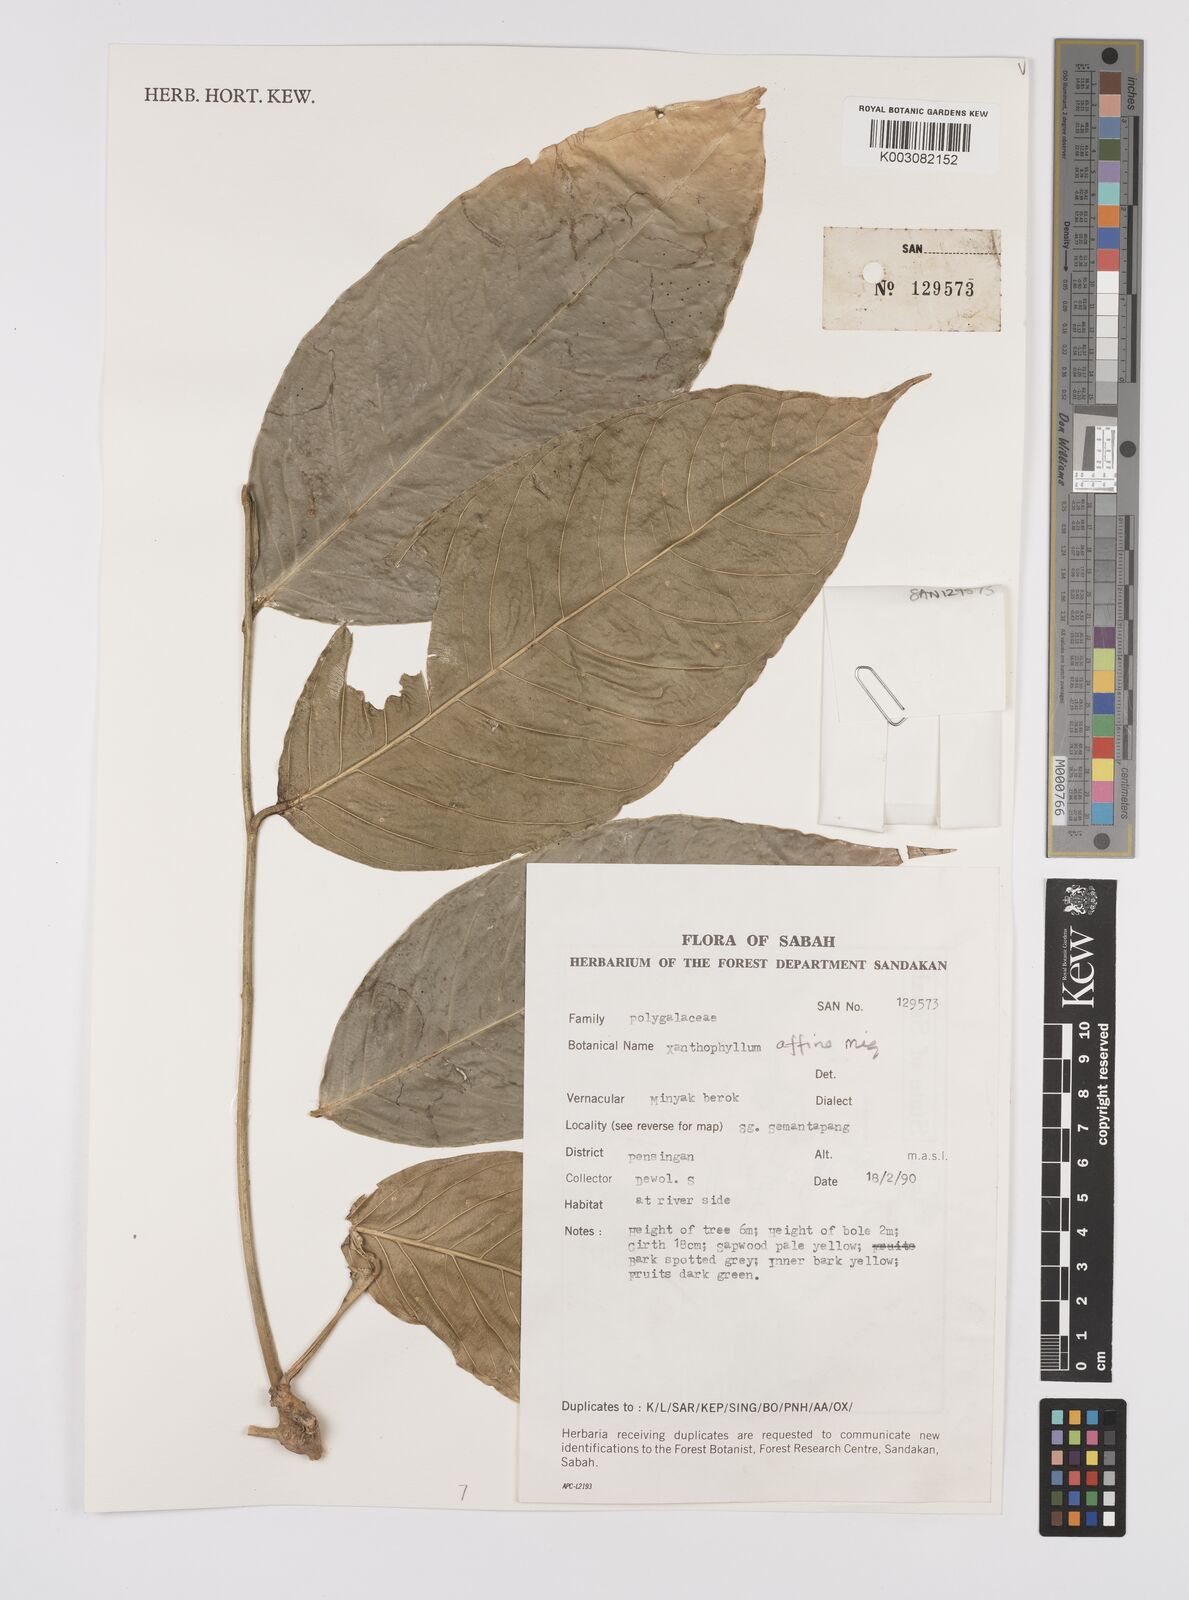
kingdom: Plantae
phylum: Tracheophyta
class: Magnoliopsida
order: Fabales
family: Polygalaceae
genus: Xanthophyllum
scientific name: Xanthophyllum flavescens
